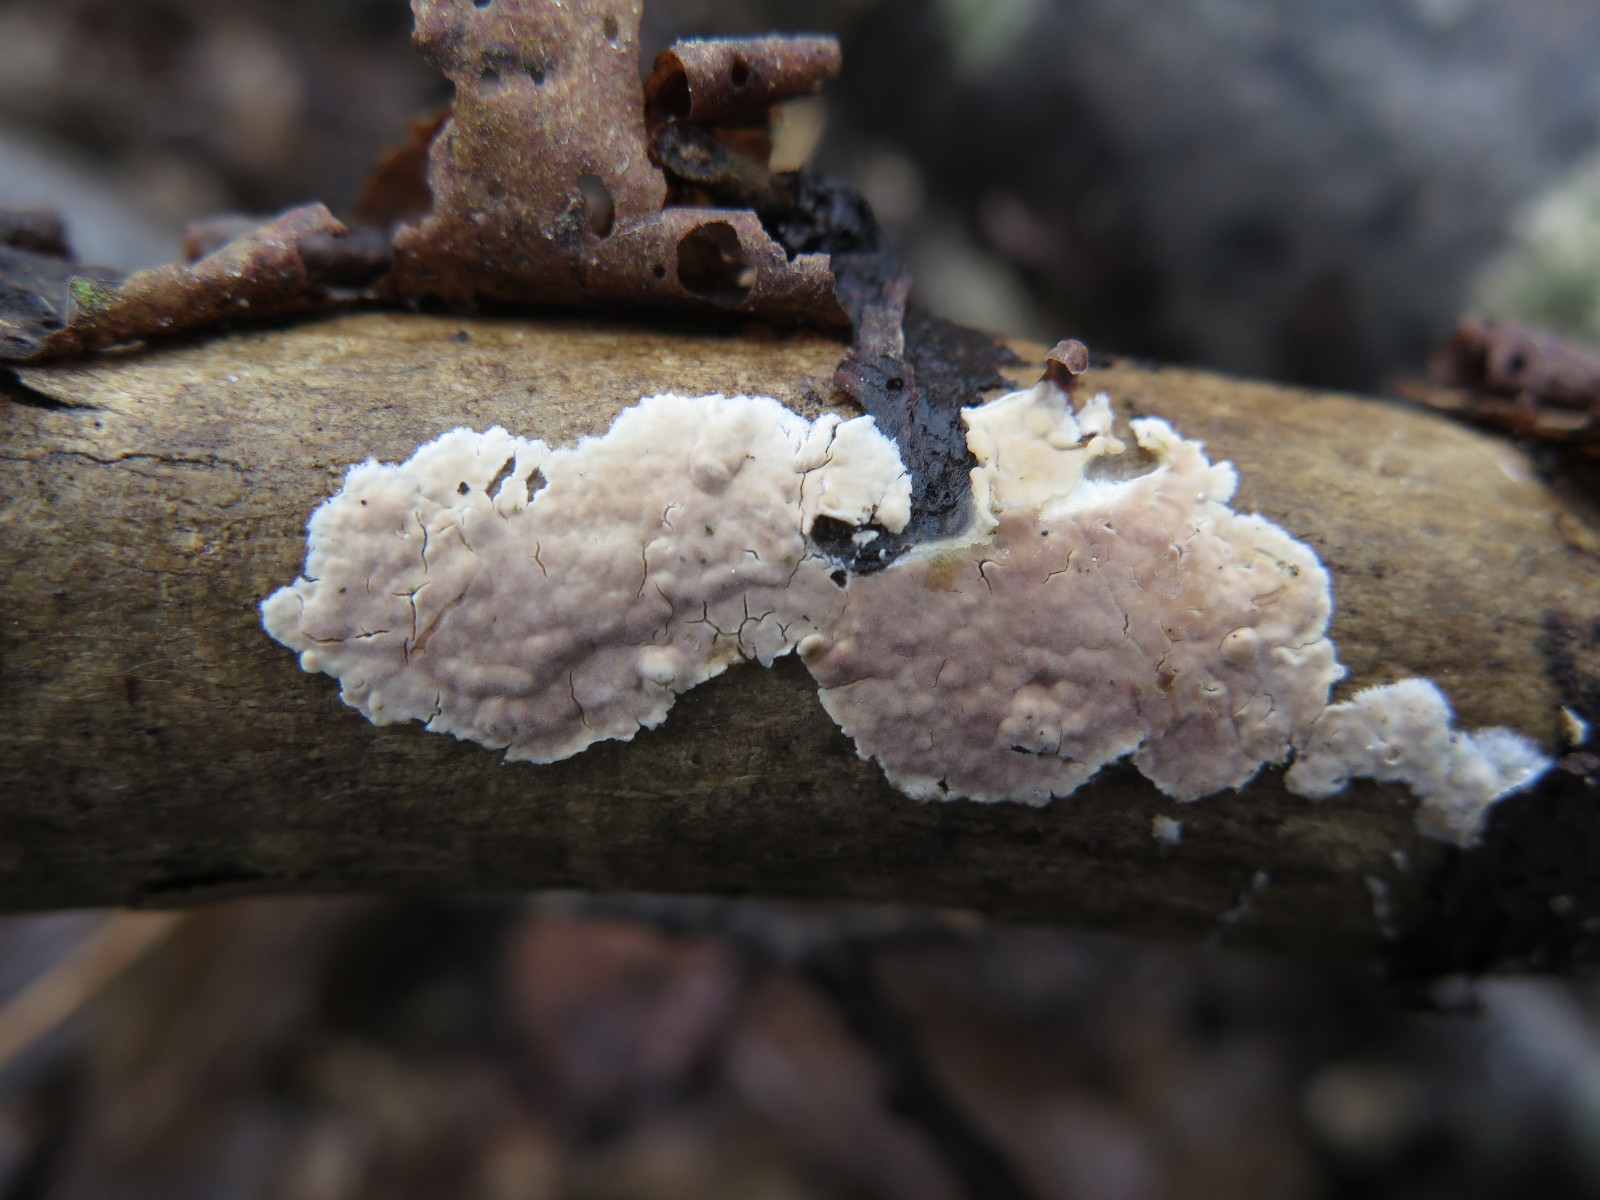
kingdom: Fungi
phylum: Basidiomycota
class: Agaricomycetes
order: Agaricales
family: Physalacriaceae
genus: Cylindrobasidium
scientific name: Cylindrobasidium evolvens
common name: sprækkehinde
